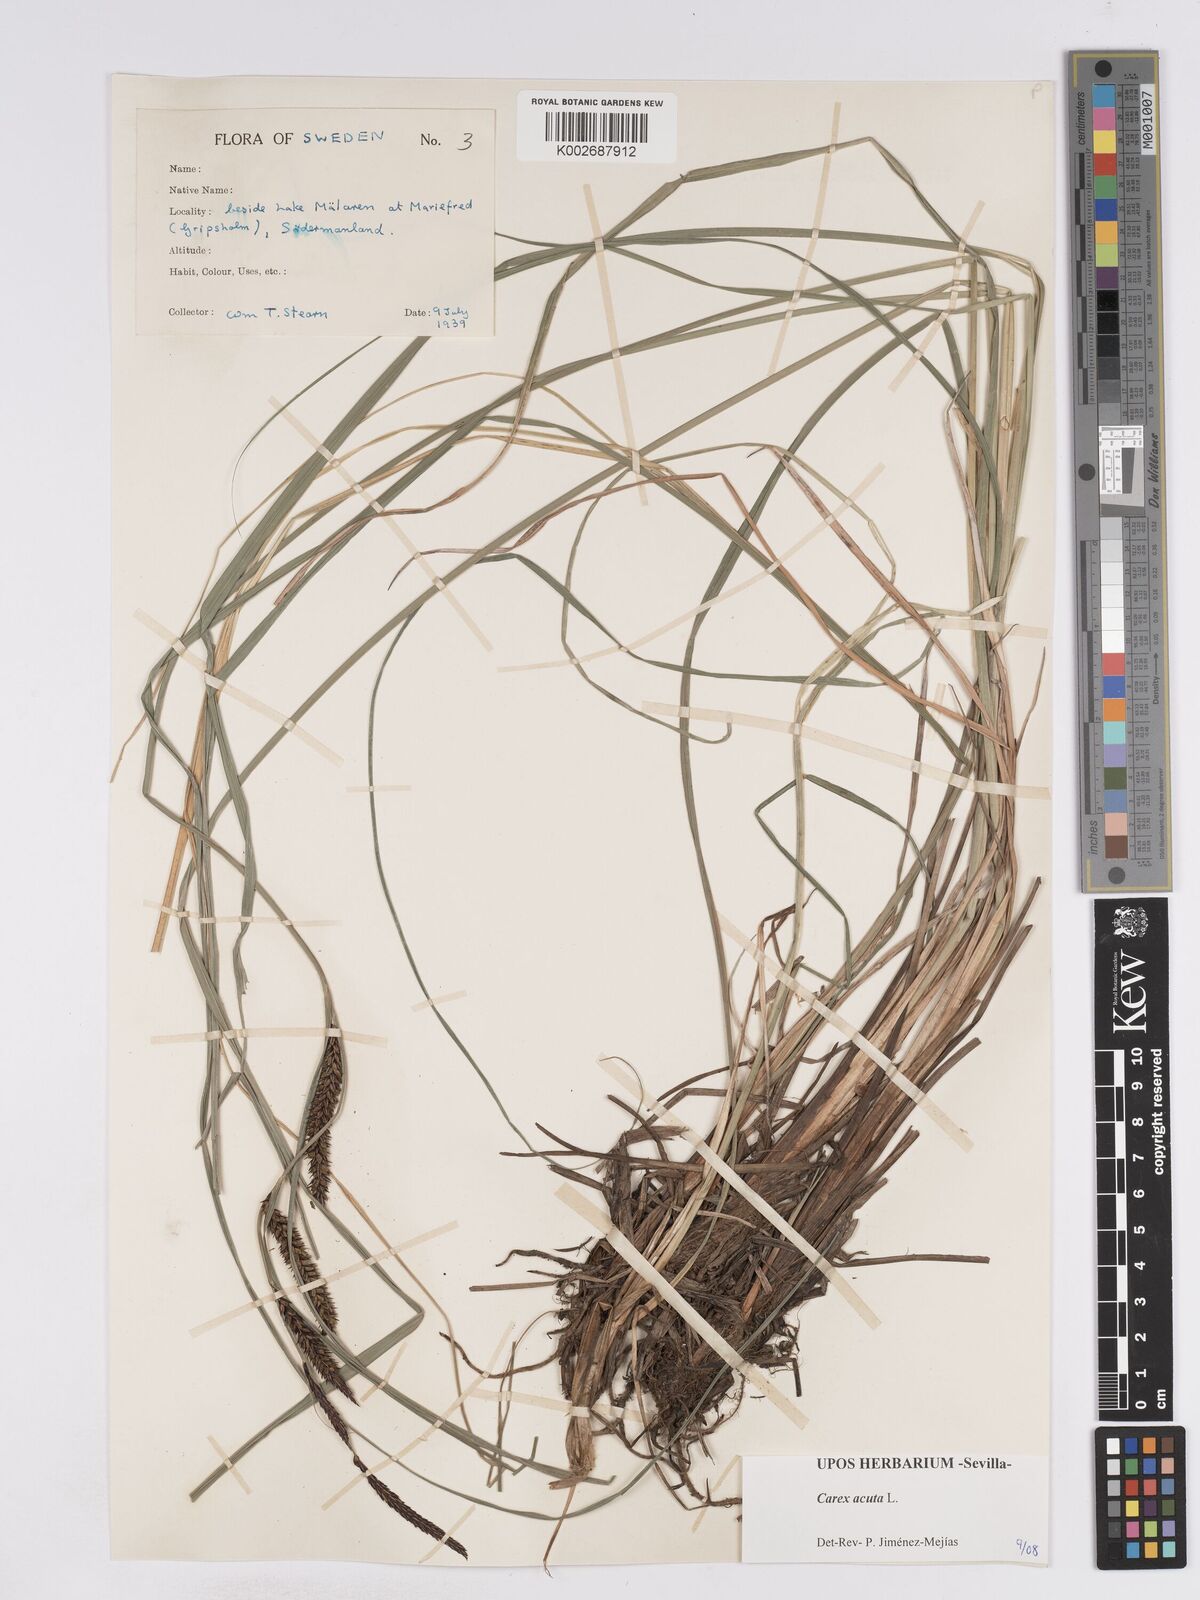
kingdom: Plantae
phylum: Tracheophyta
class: Liliopsida
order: Poales
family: Cyperaceae
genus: Carex
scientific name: Carex acuta
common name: Slender tufted-sedge
